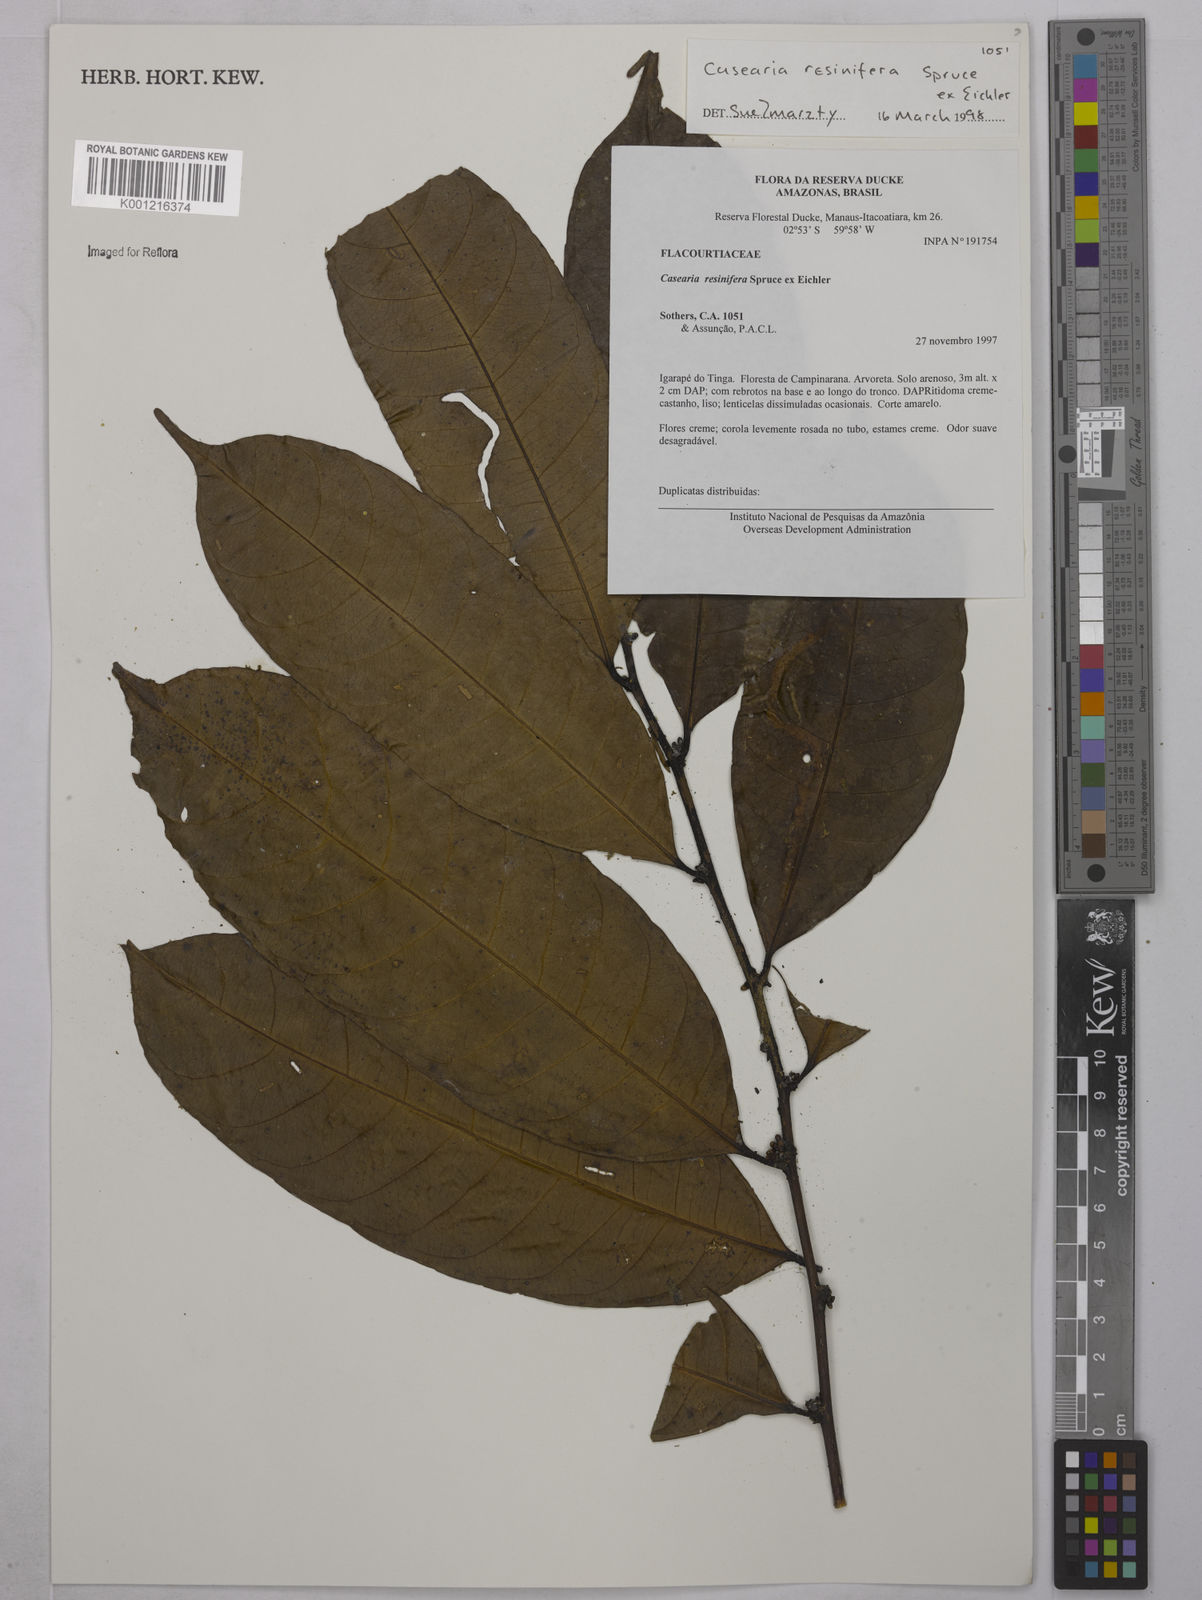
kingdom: Plantae
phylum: Tracheophyta
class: Magnoliopsida
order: Malpighiales
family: Salicaceae
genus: Casearia
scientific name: Casearia resinifera
